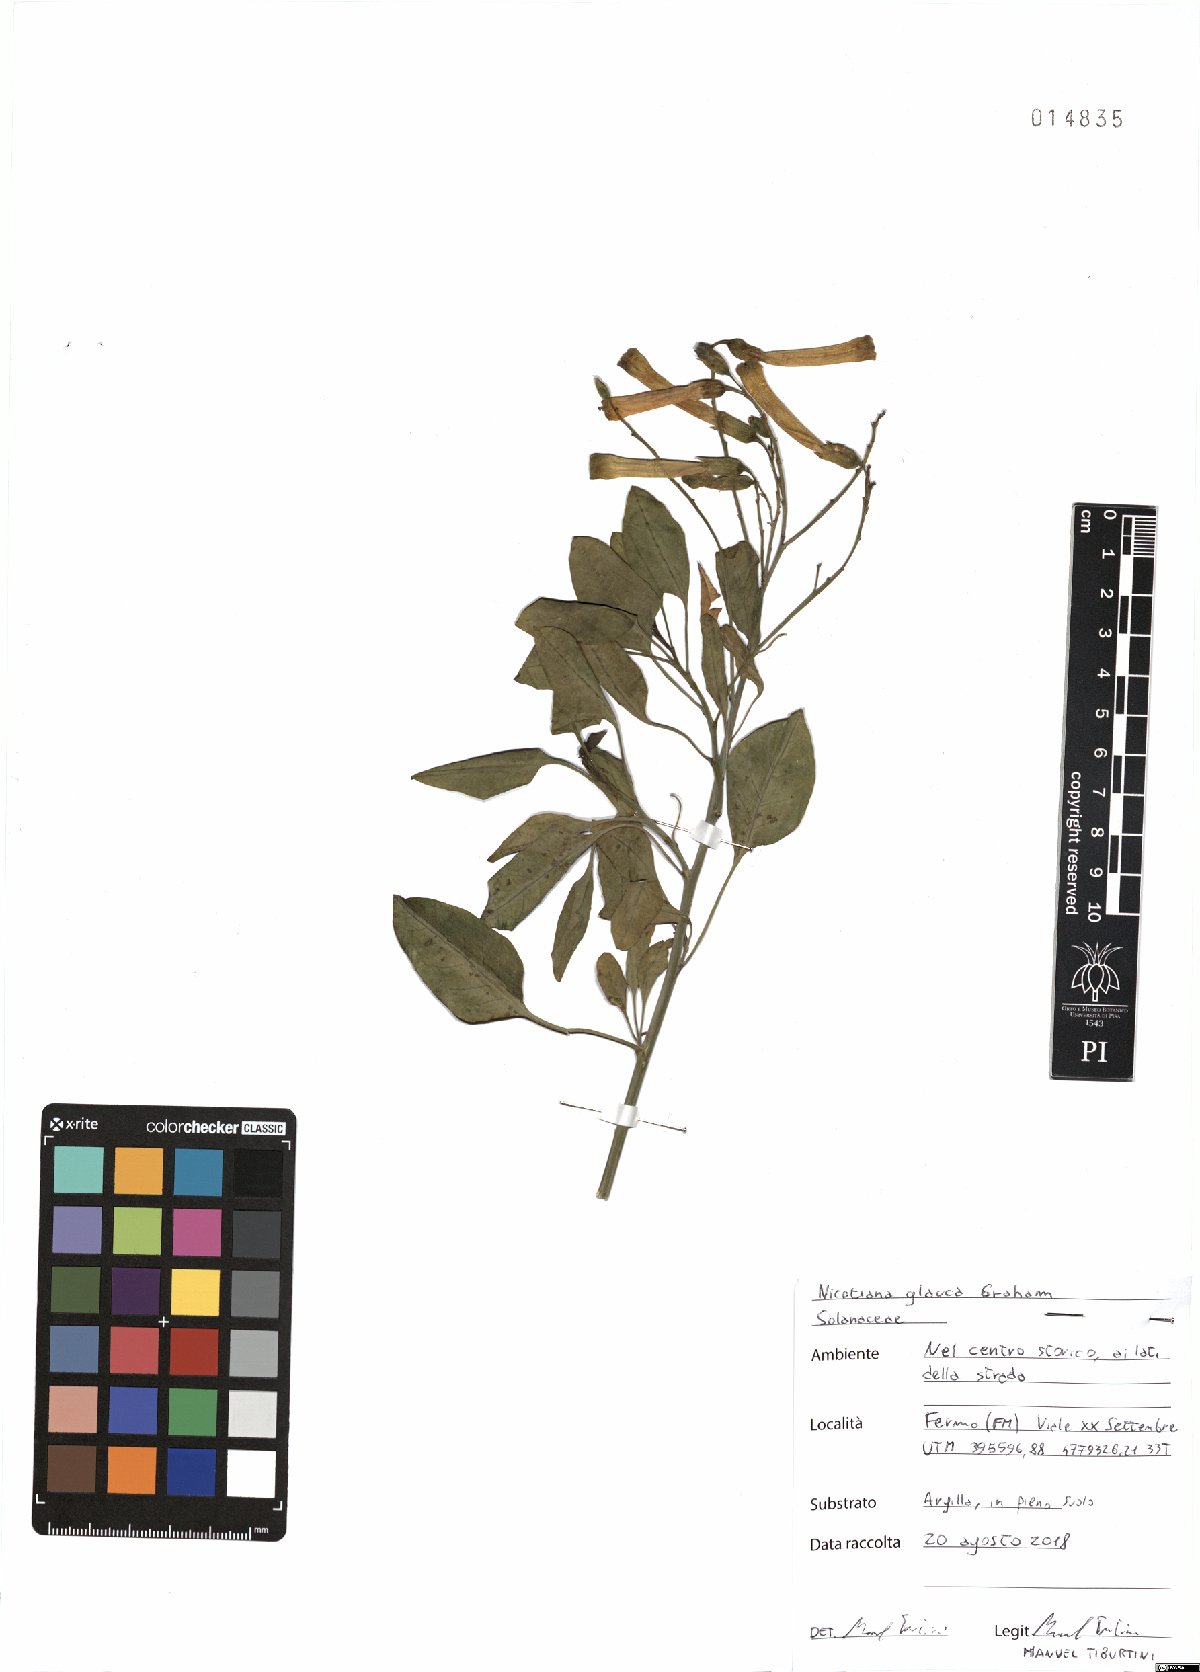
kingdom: Plantae
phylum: Tracheophyta
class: Magnoliopsida
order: Solanales
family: Solanaceae
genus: Nicotiana
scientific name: Nicotiana glauca
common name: Tree tobacco
